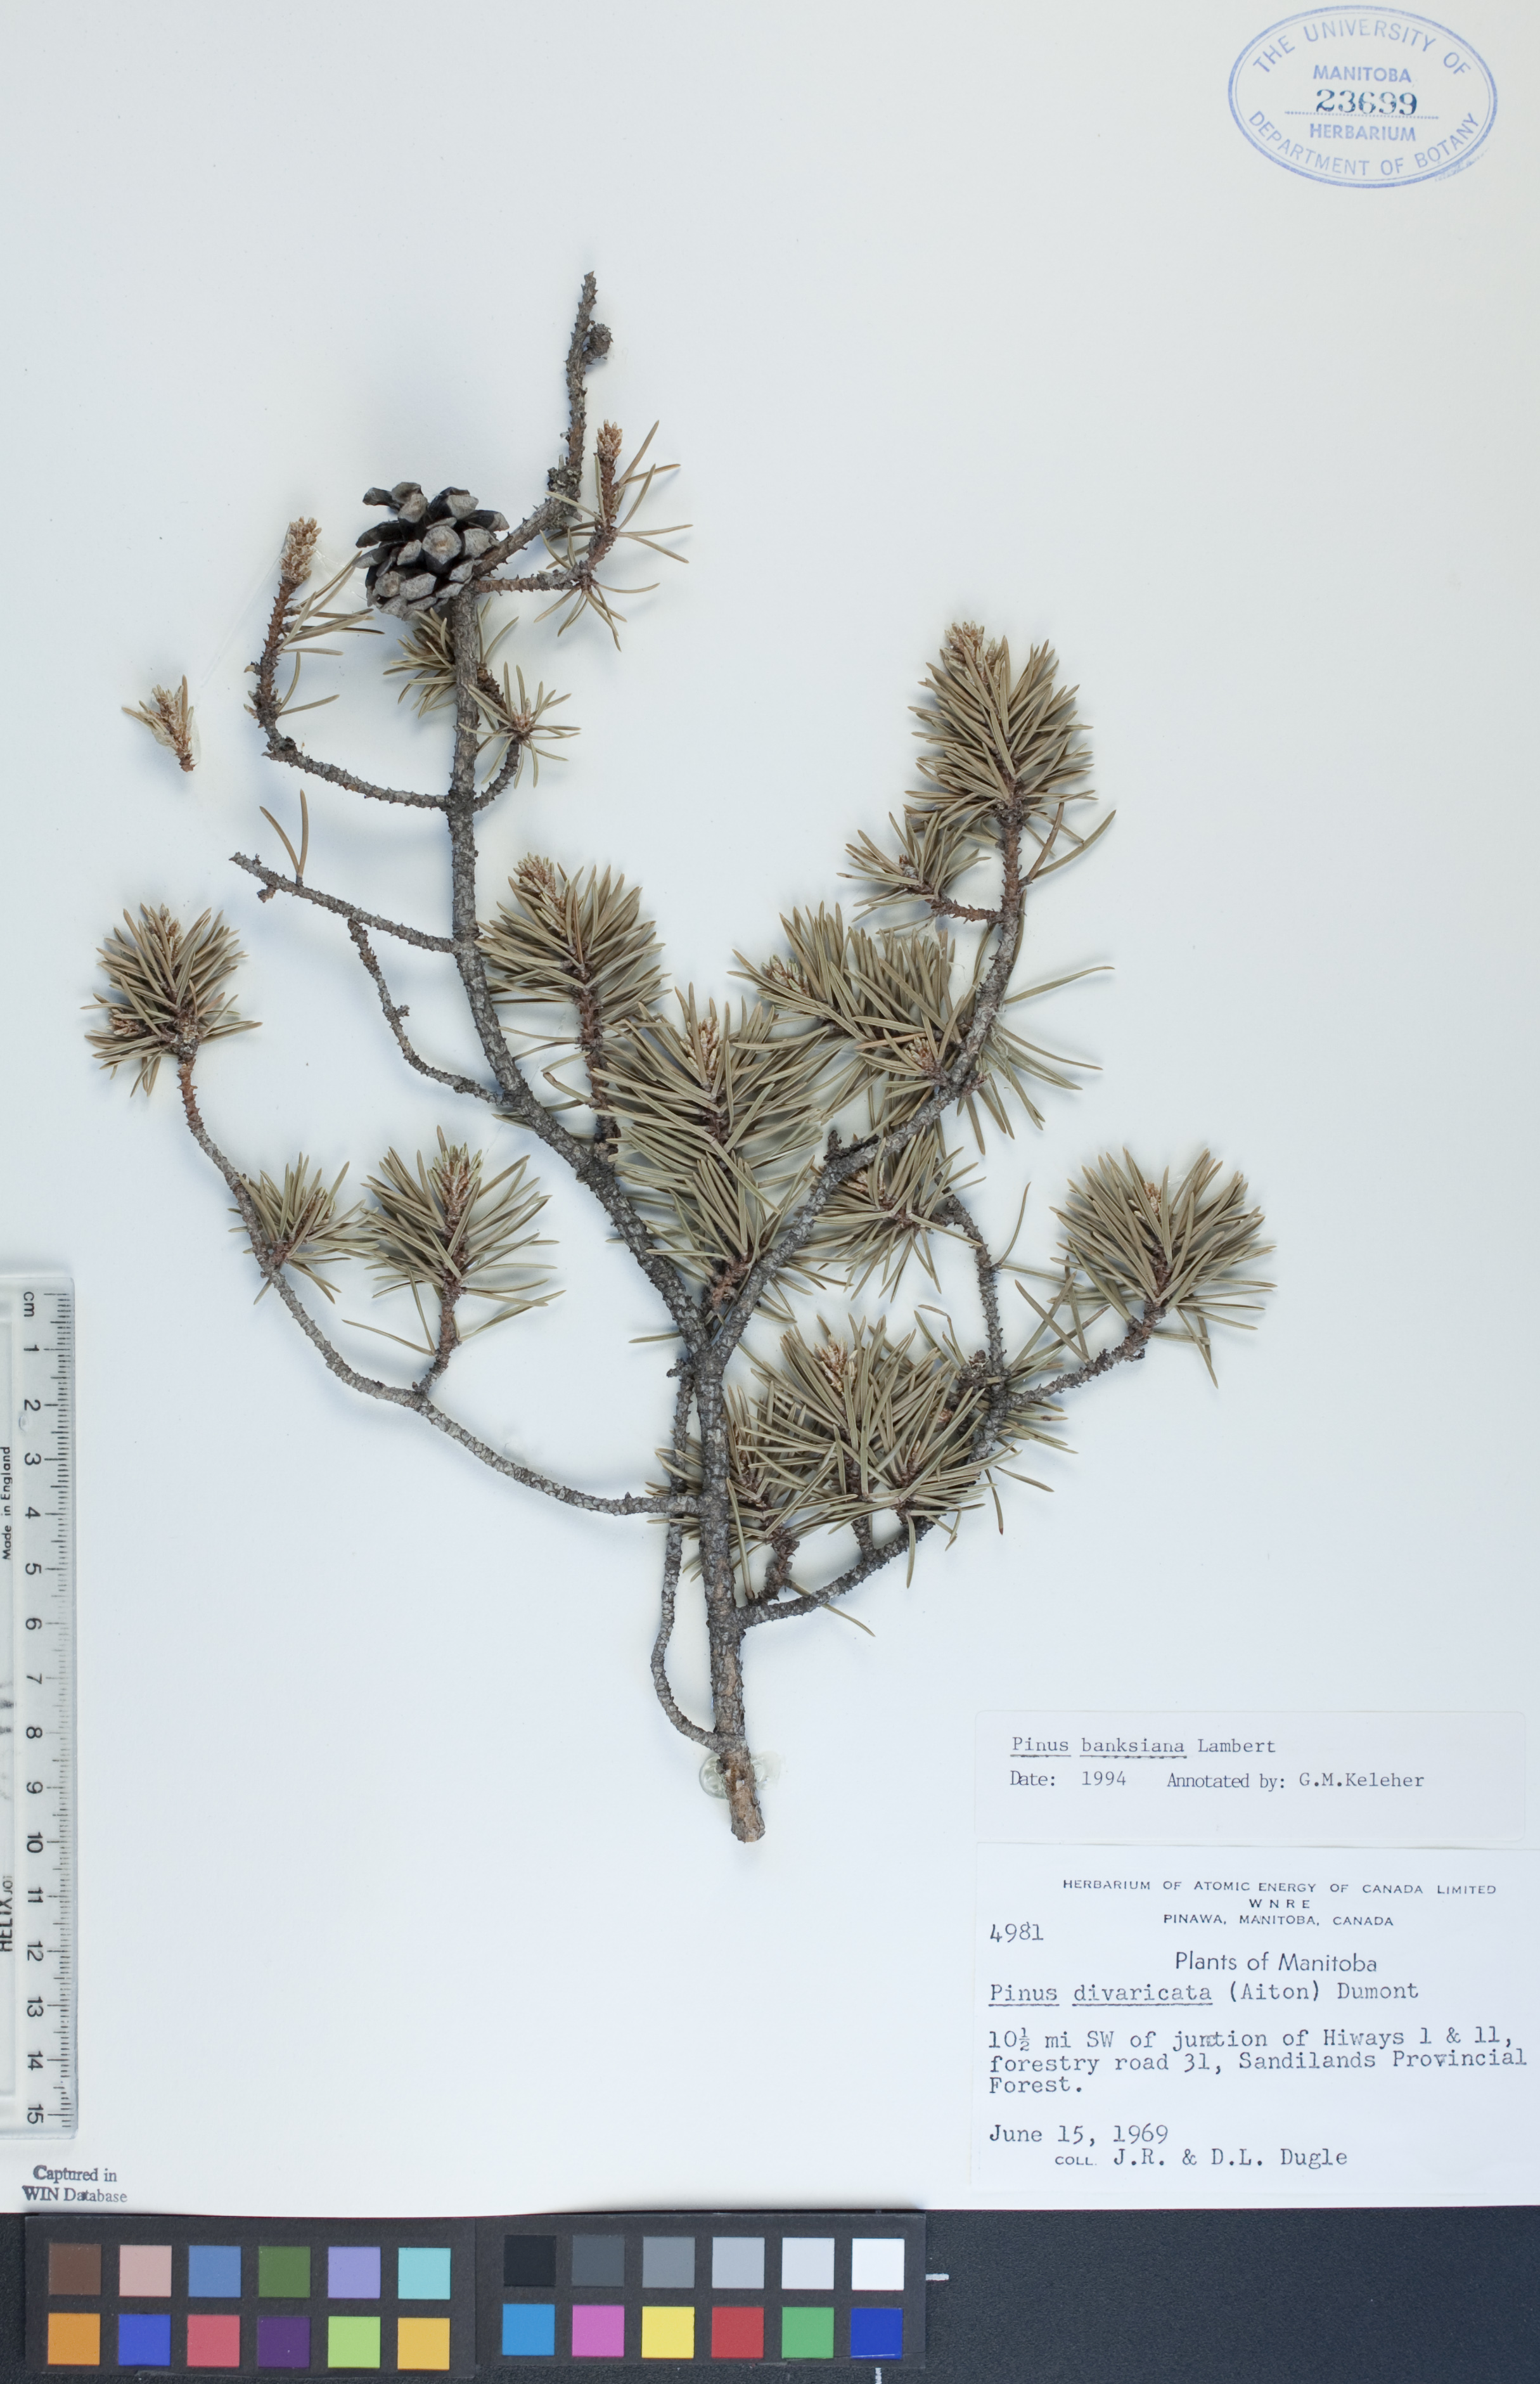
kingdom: Plantae
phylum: Tracheophyta
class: Pinopsida
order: Pinales
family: Pinaceae
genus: Pinus
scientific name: Pinus banksiana
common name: Jack pine
